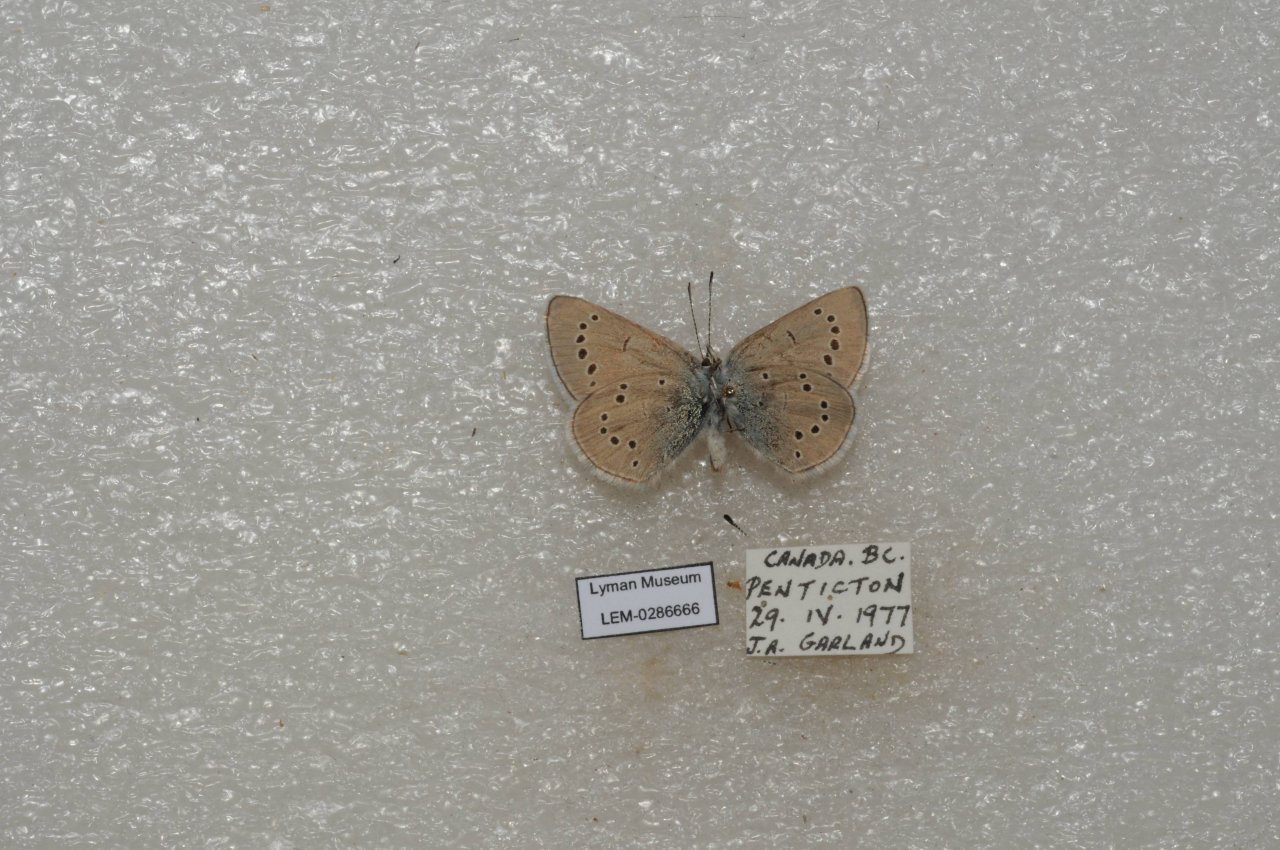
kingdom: Animalia
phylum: Arthropoda
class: Insecta
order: Lepidoptera
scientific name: Lepidoptera
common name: Butterflies
